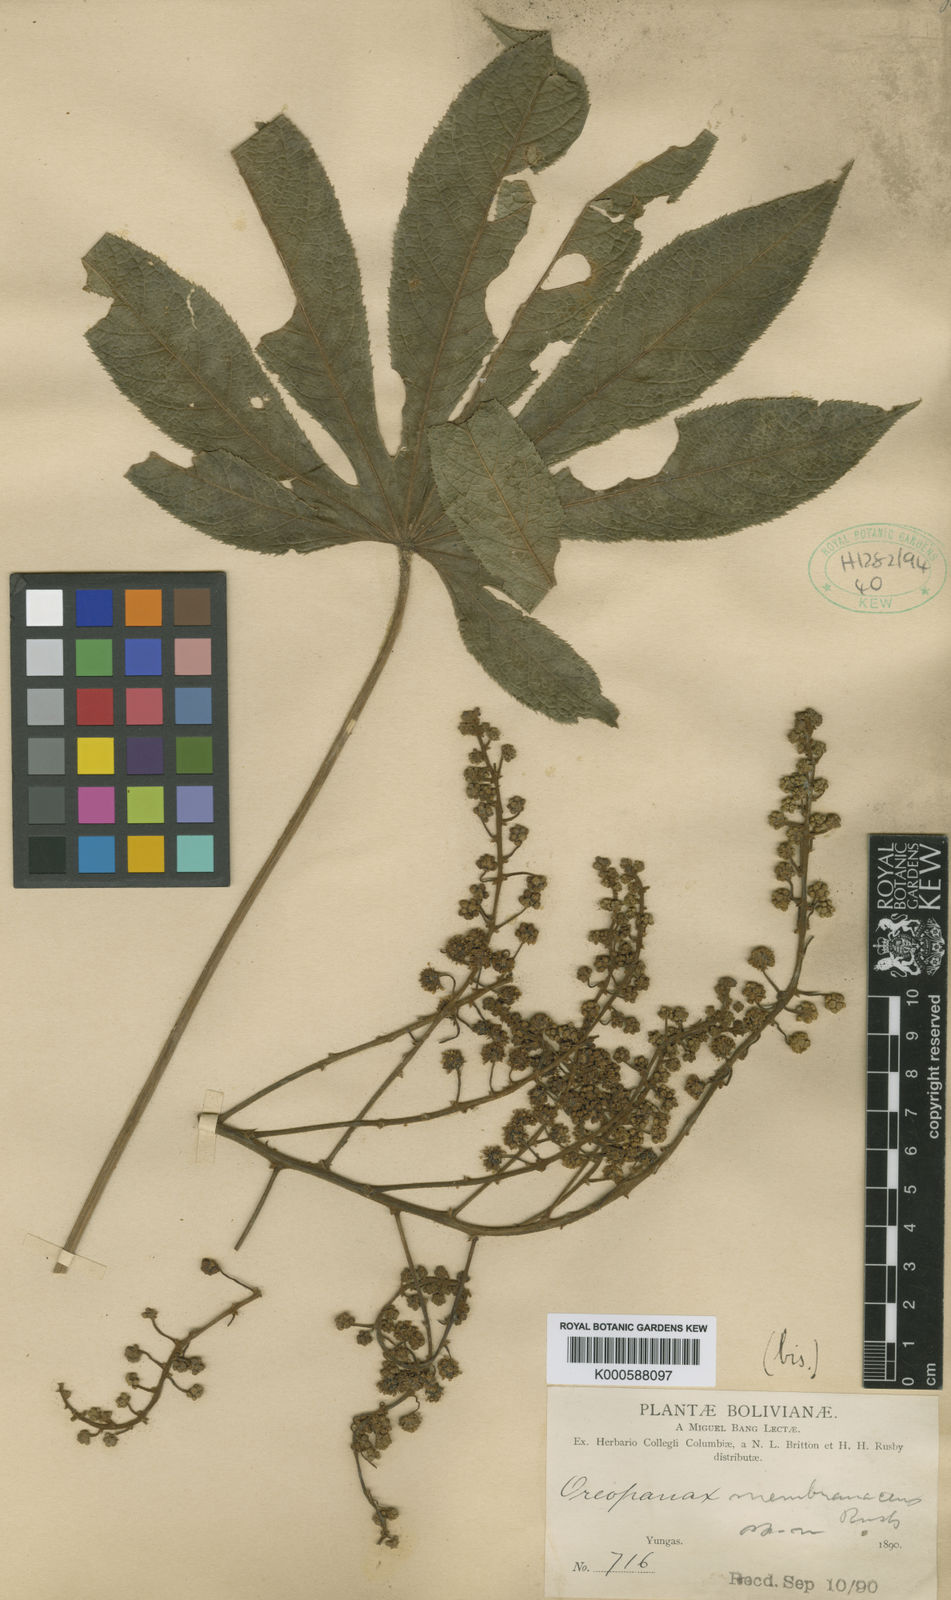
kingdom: Plantae
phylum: Tracheophyta
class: Magnoliopsida
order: Apiales
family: Araliaceae
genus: Oreopanax
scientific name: Oreopanax membranaceus
